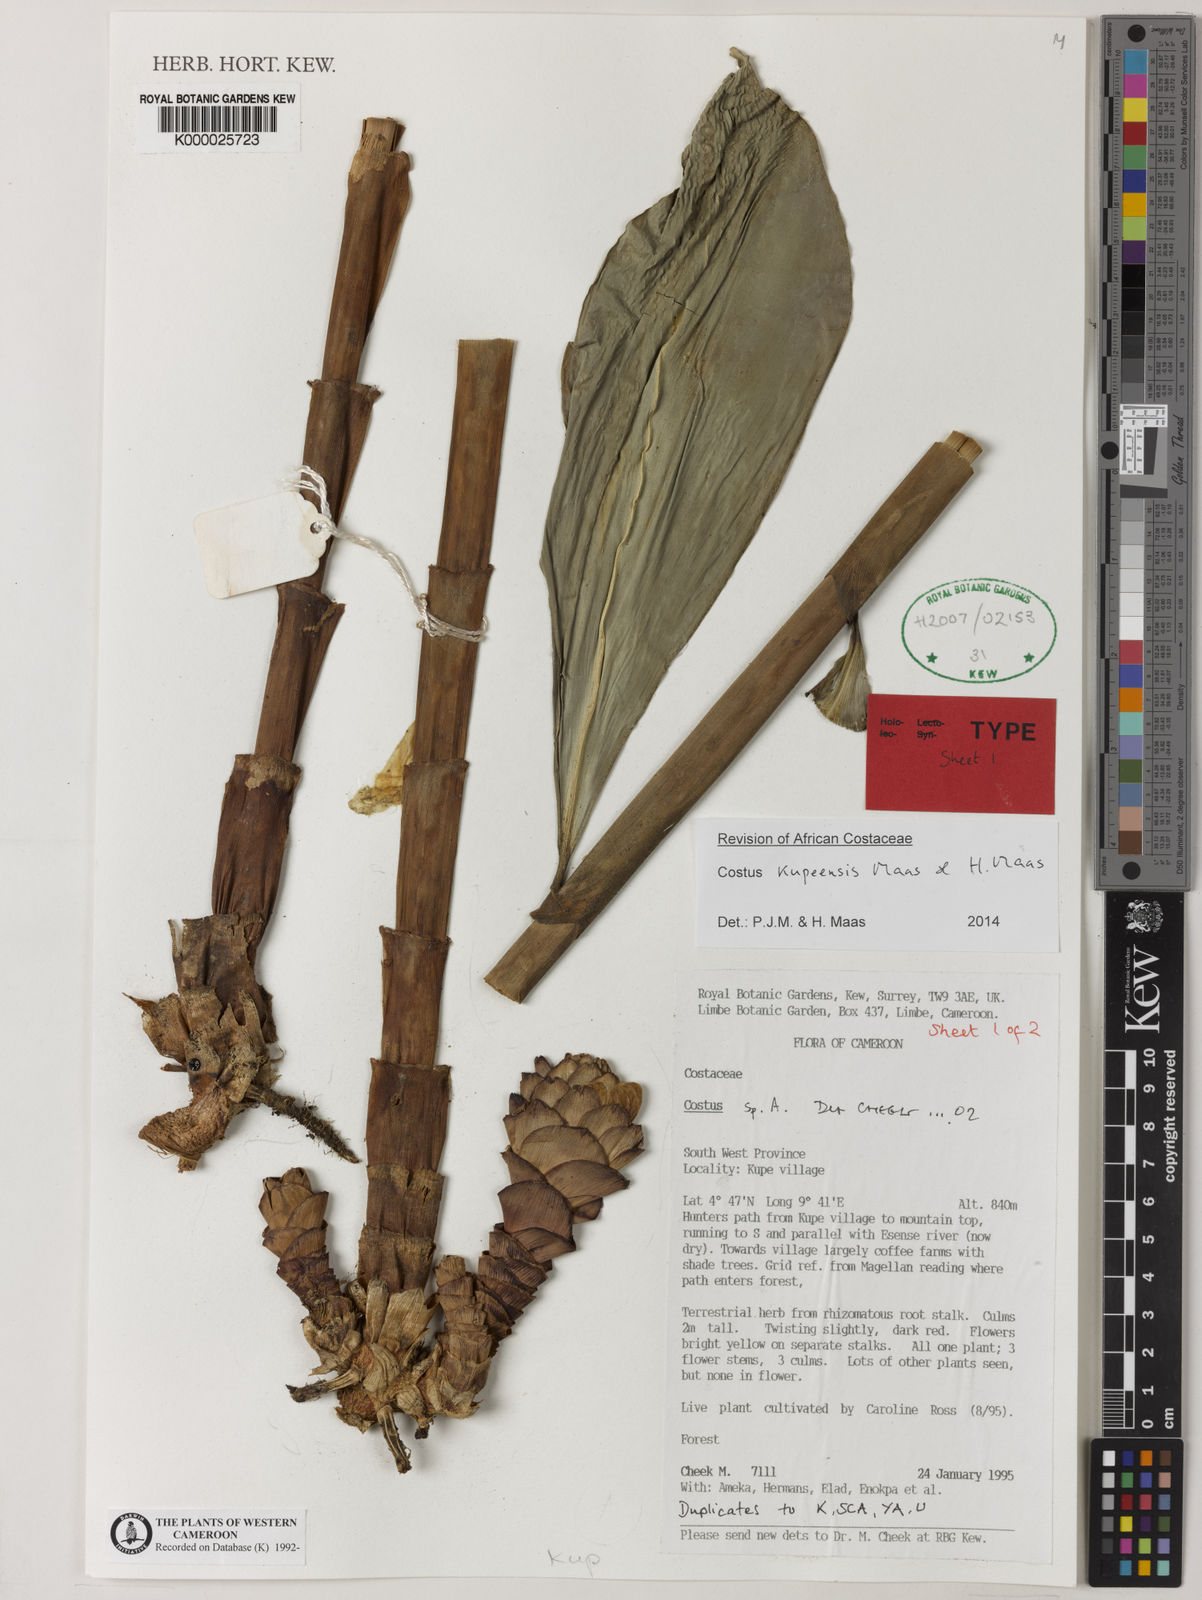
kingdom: Plantae
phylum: Tracheophyta
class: Liliopsida
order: Zingiberales
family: Costaceae
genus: Costus
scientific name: Costus kupensis
